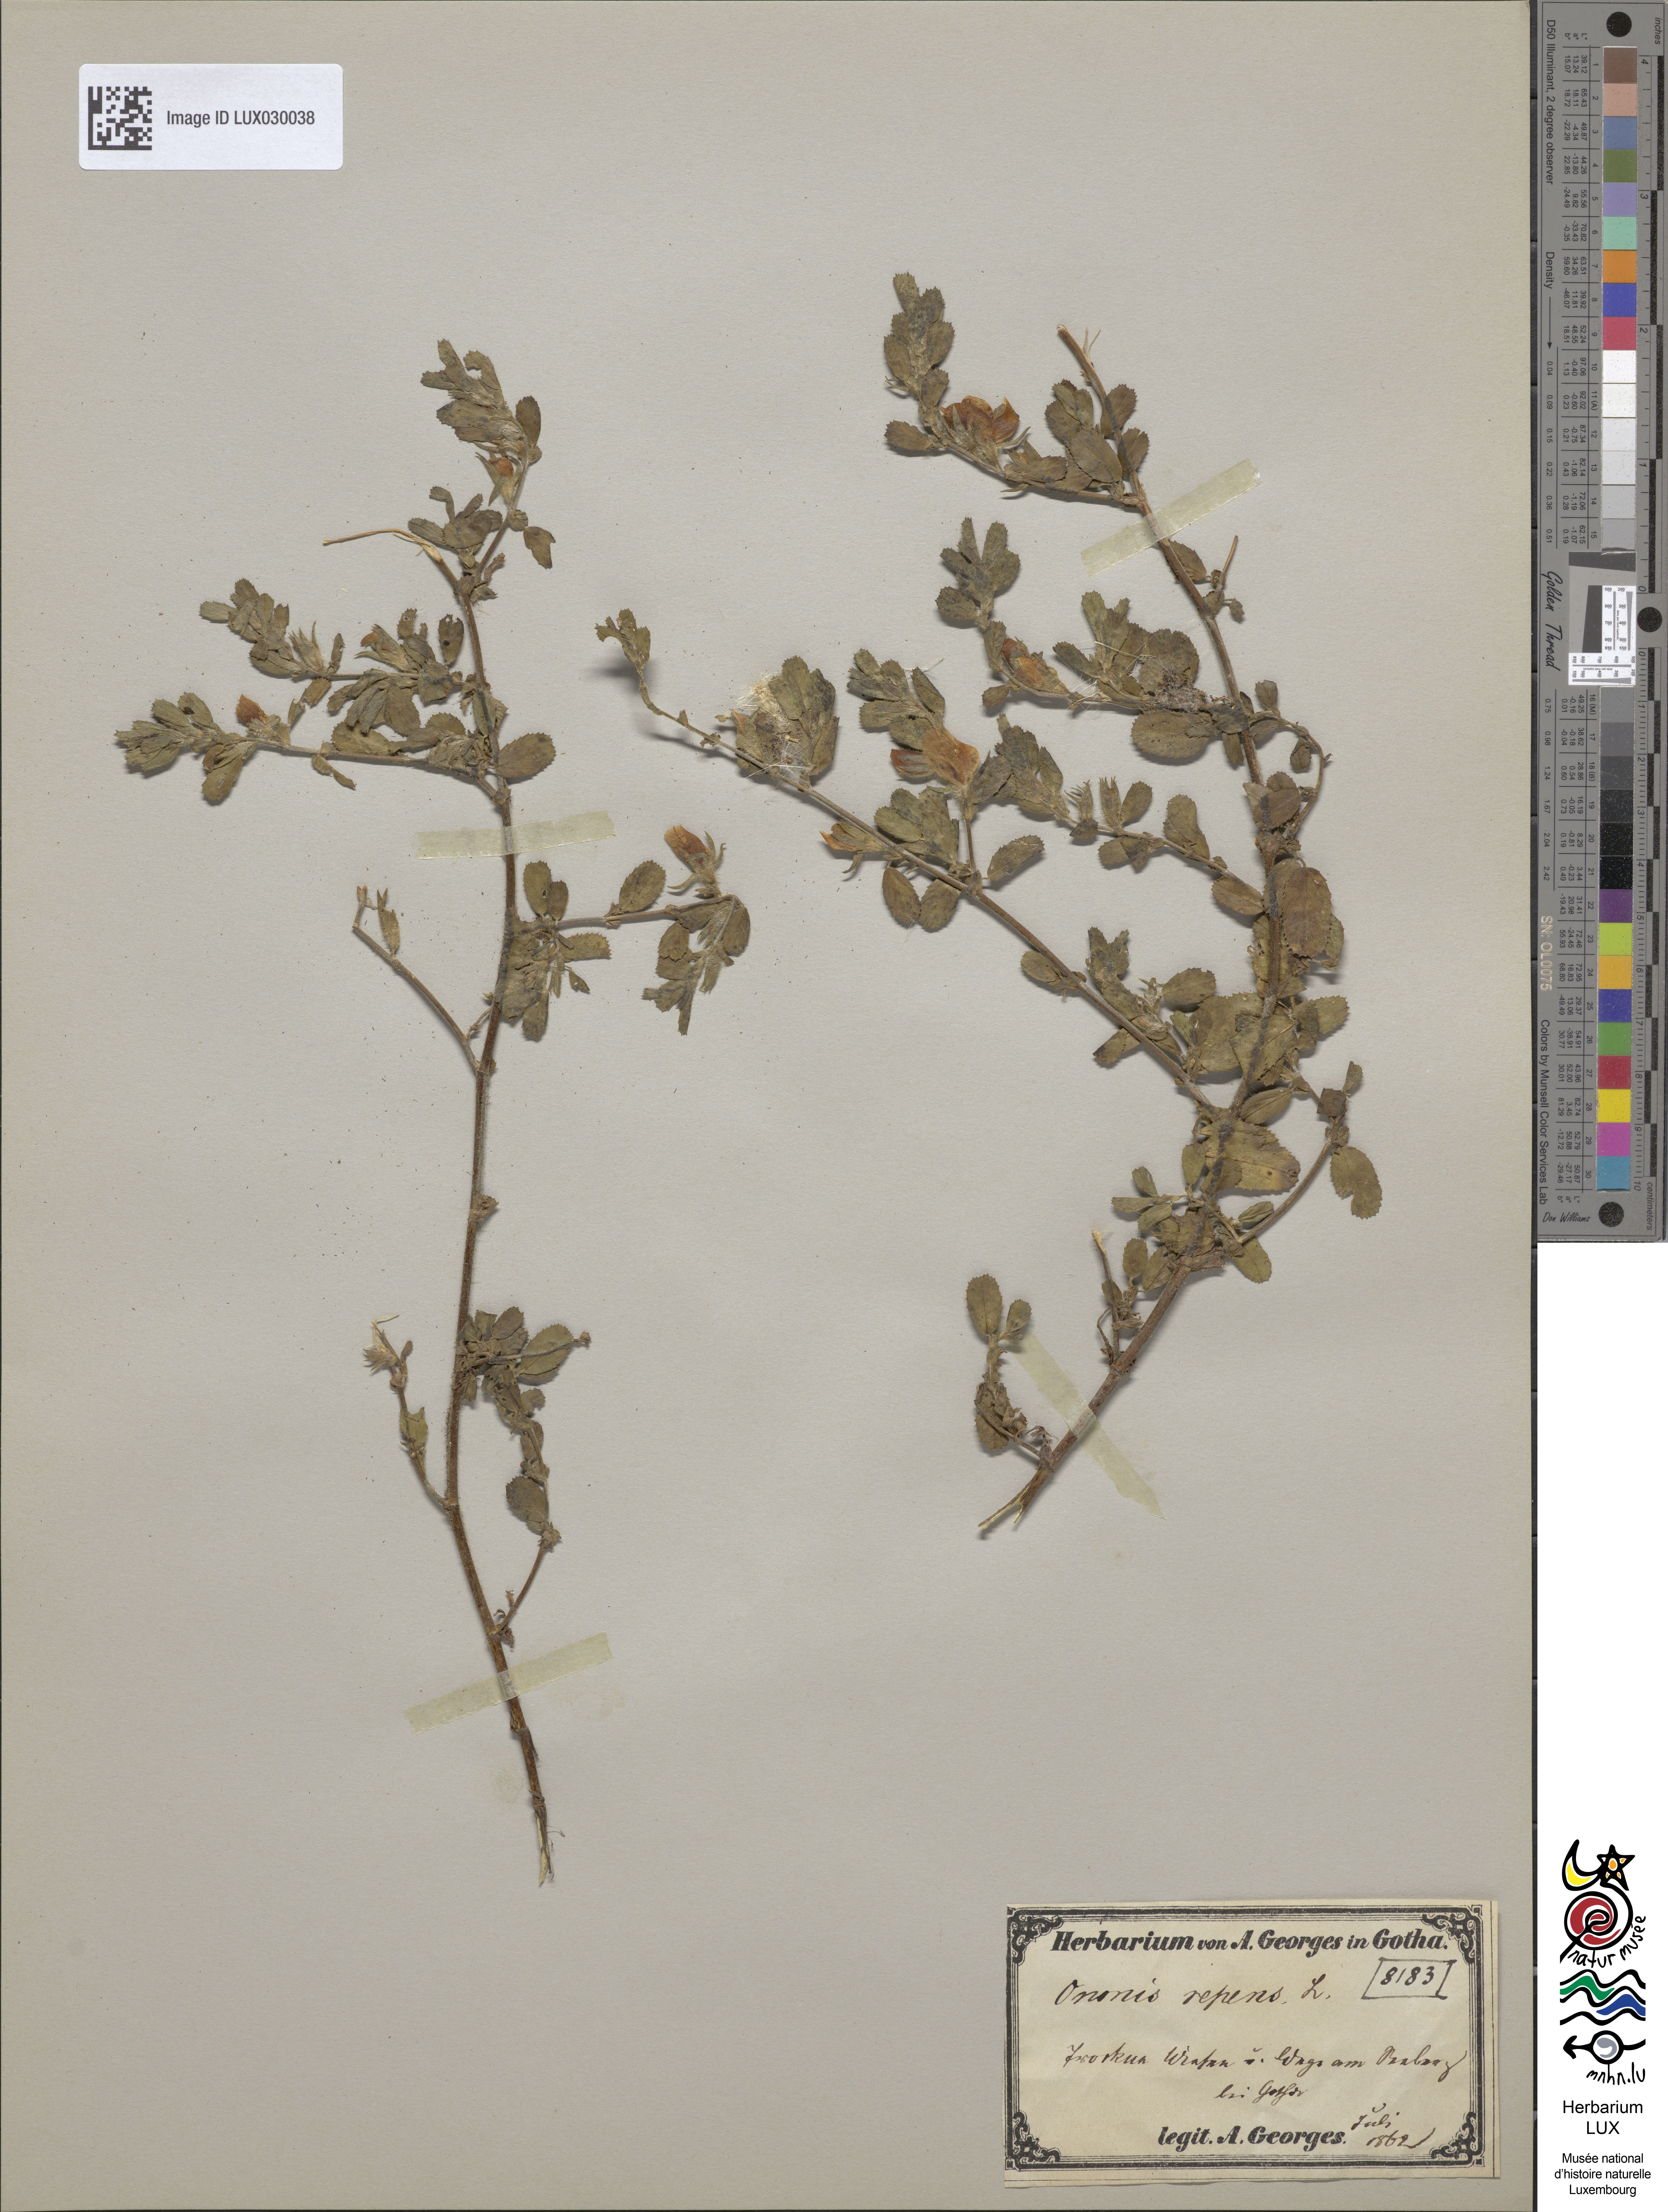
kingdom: Plantae
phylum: Tracheophyta
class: Magnoliopsida
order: Fabales
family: Fabaceae
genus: Ononis
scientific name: Ononis spinosa
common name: Spiny restharrow
